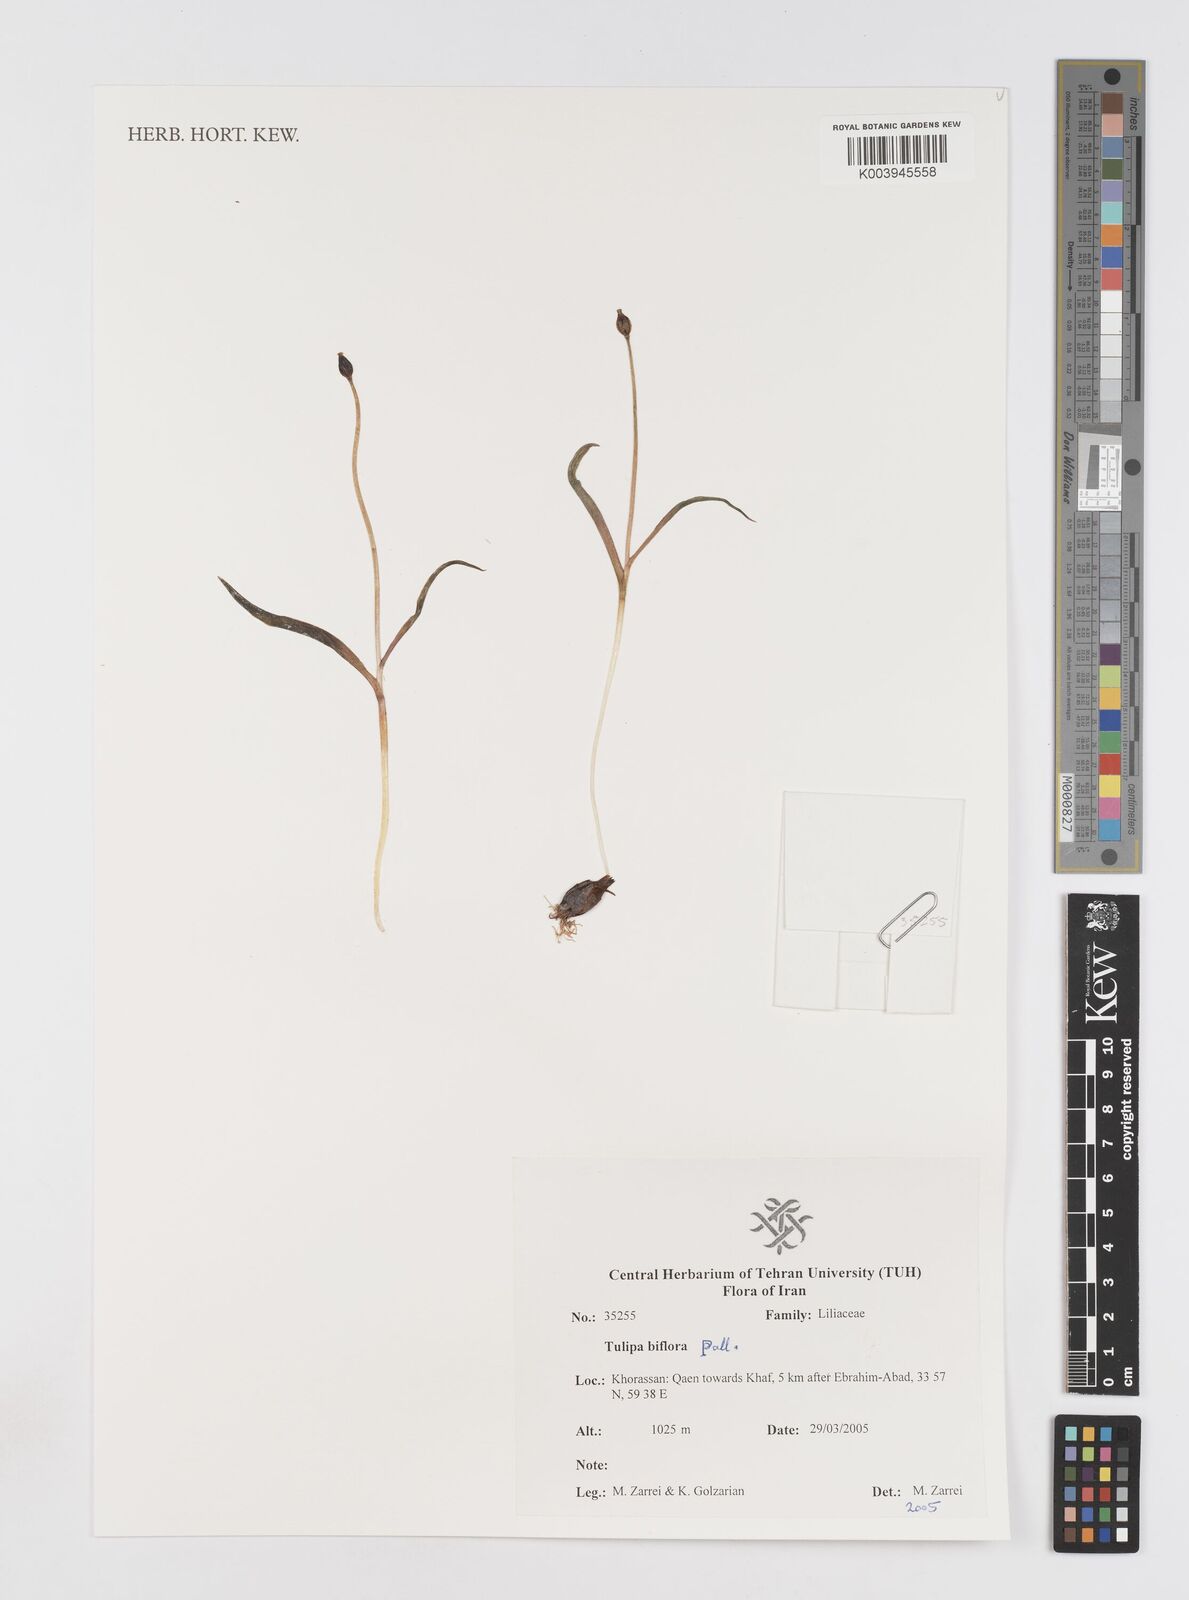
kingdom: Plantae
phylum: Tracheophyta
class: Liliopsida
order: Liliales
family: Liliaceae
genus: Tulipa
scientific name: Tulipa biflora
